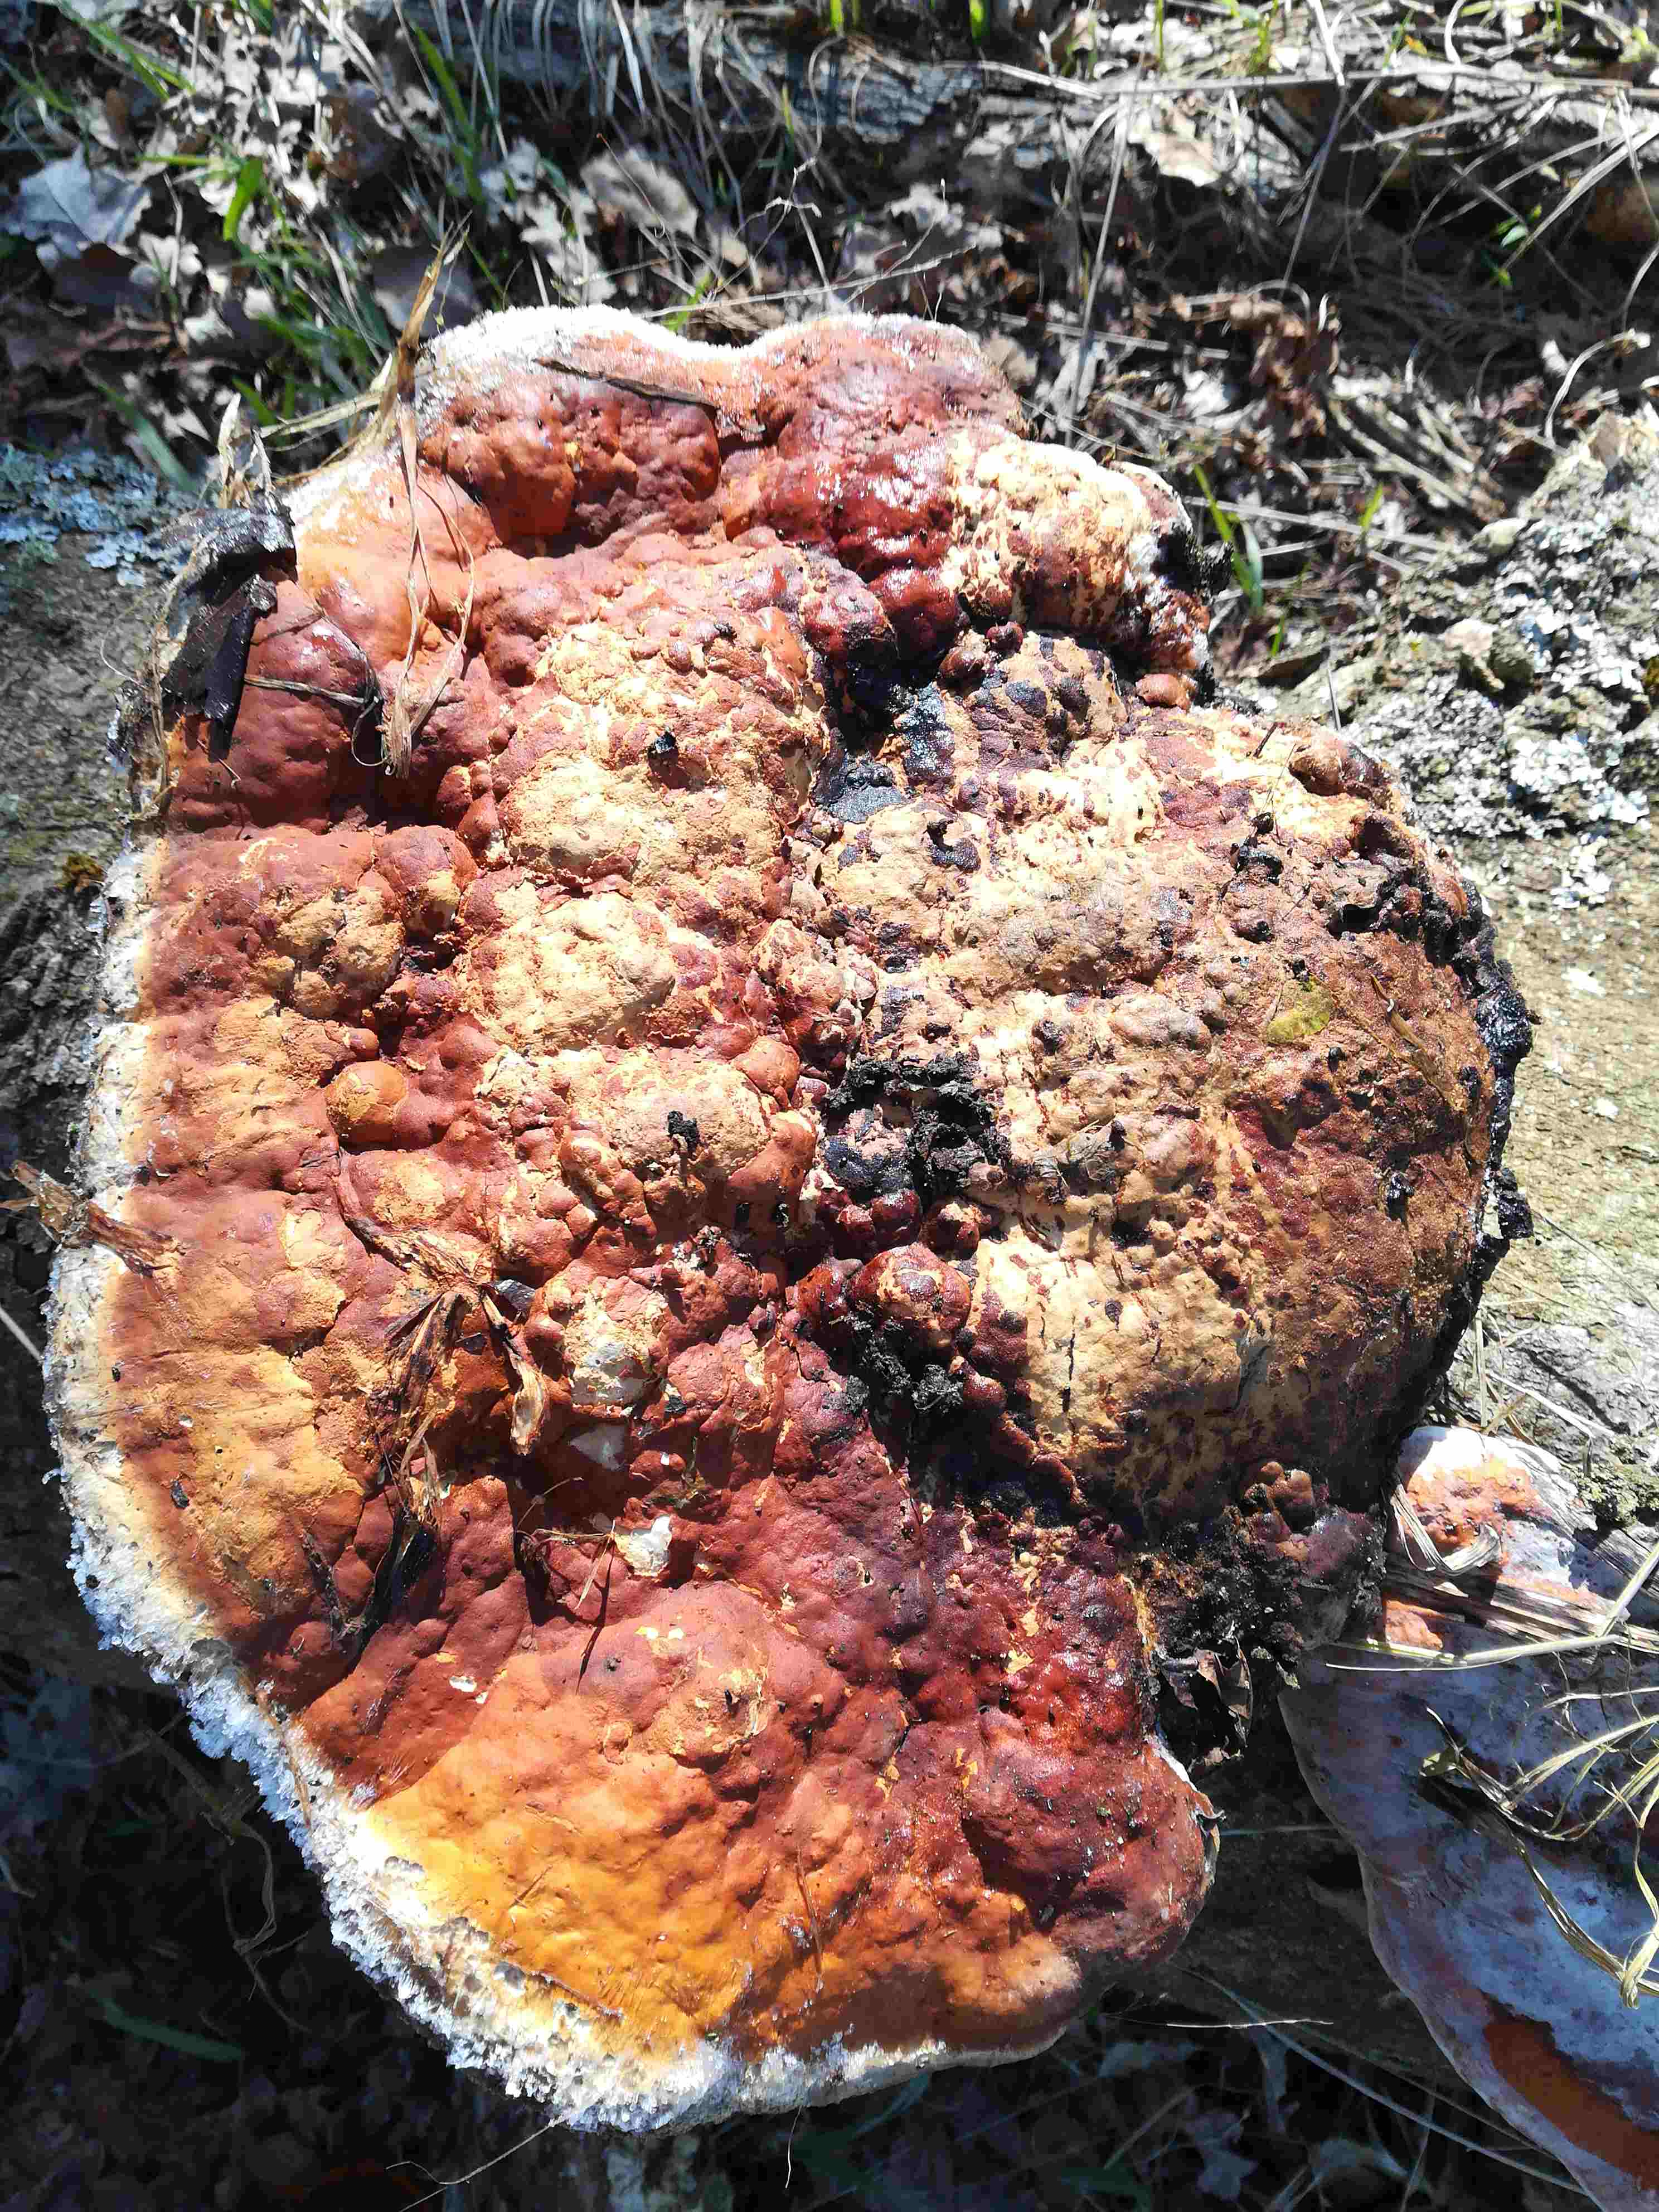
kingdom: Fungi
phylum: Basidiomycota
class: Agaricomycetes
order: Polyporales
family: Fomitopsidaceae
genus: Fomitopsis
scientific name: Fomitopsis pinicola
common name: randbæltet hovporesvamp
